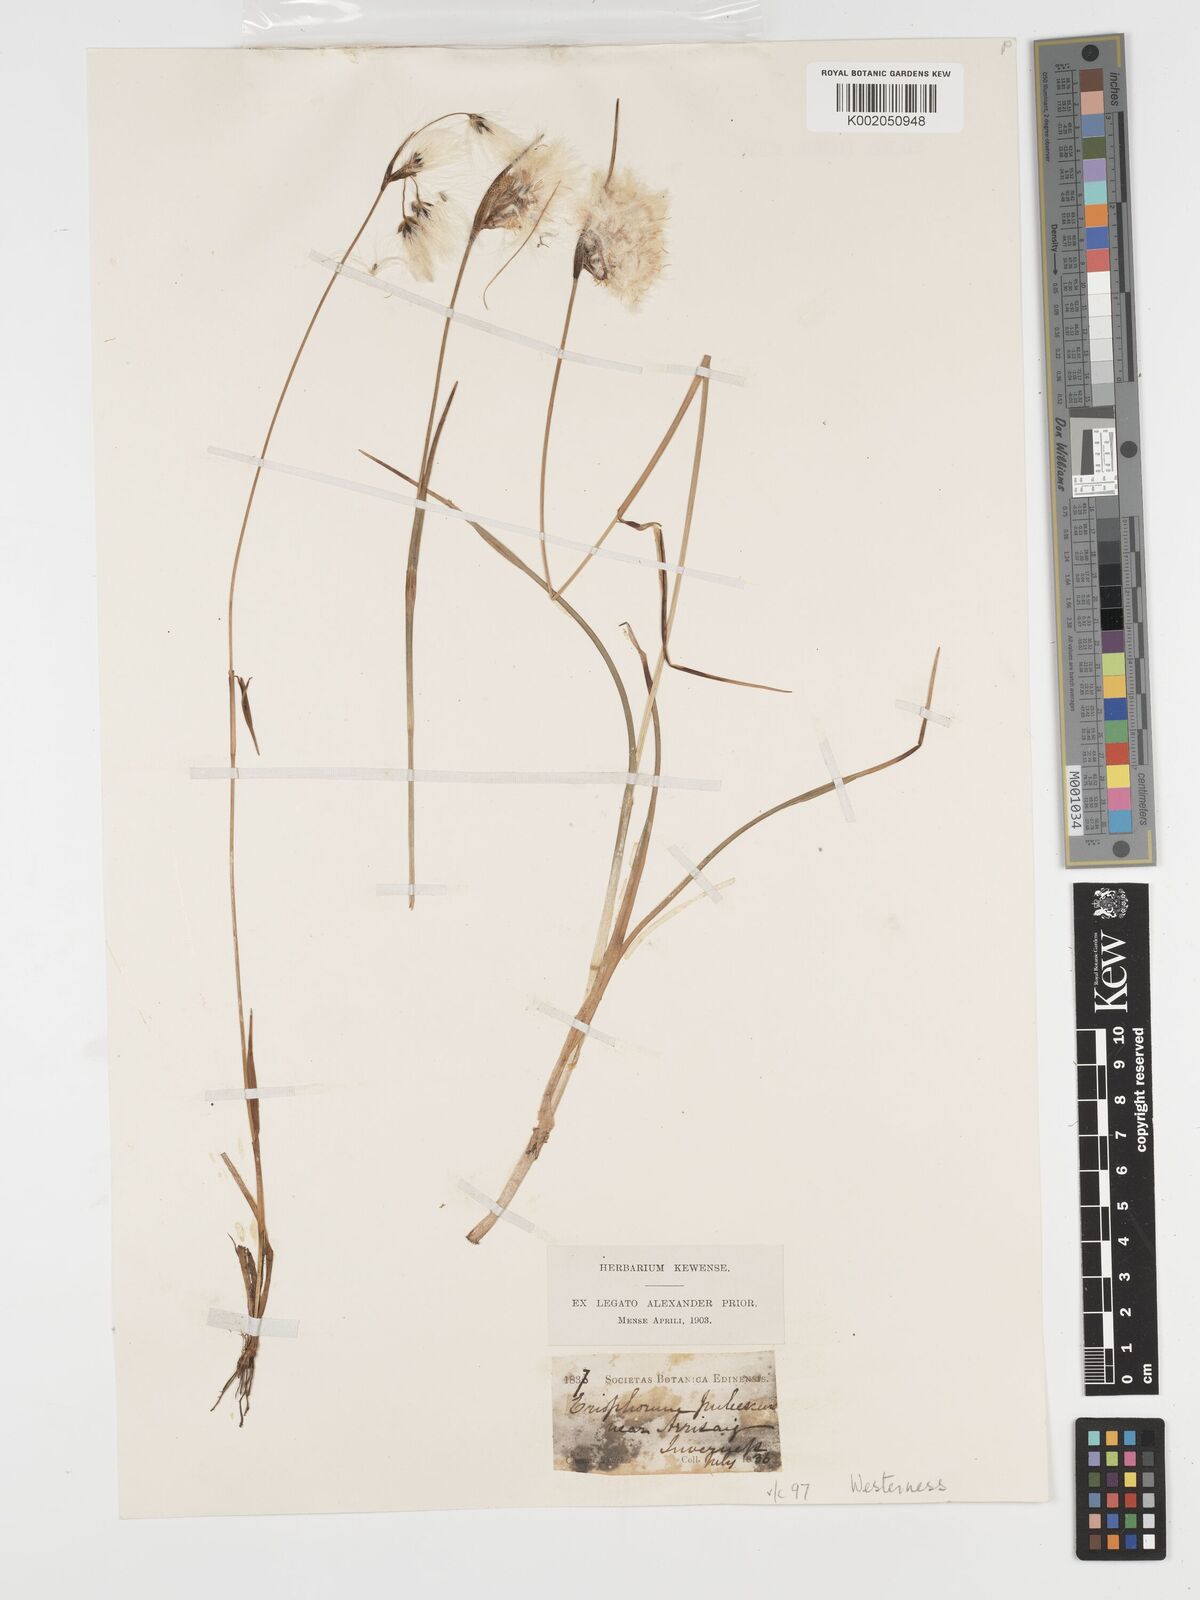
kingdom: Plantae
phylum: Tracheophyta
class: Liliopsida
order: Poales
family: Cyperaceae
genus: Eriophorum
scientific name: Eriophorum angustifolium
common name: Common cottongrass
